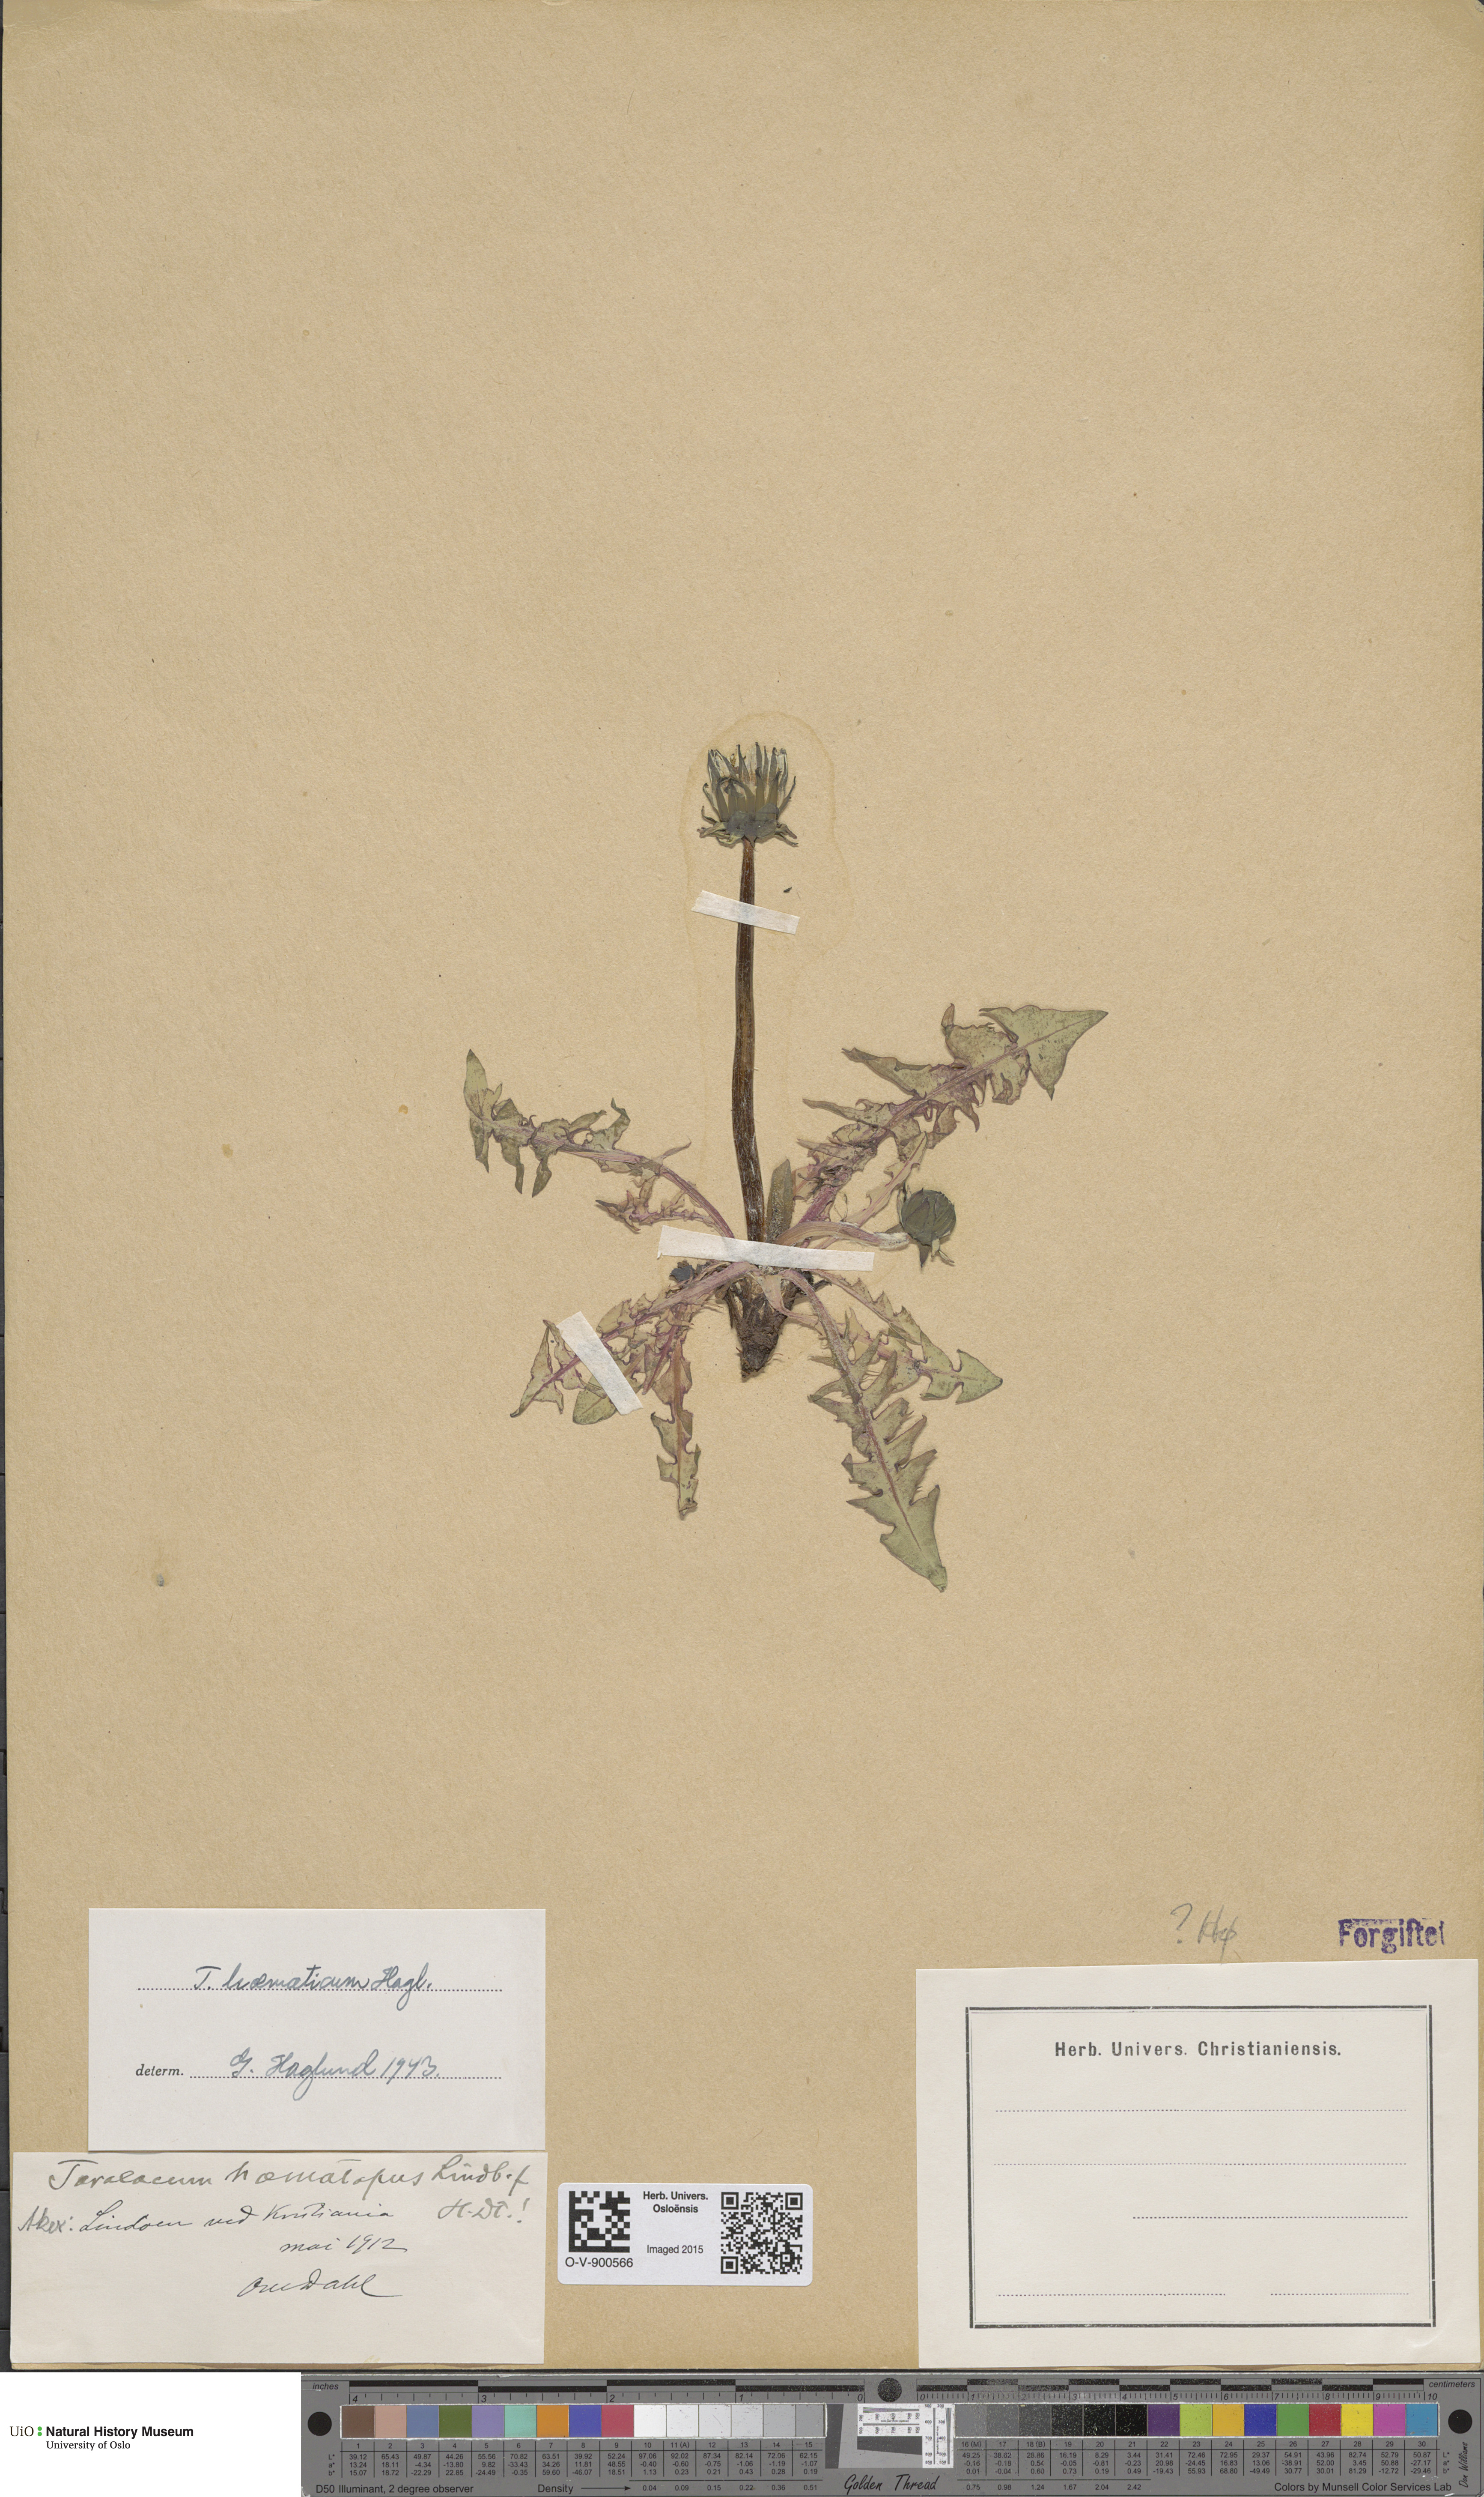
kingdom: Plantae
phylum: Tracheophyta
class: Magnoliopsida
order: Asterales
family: Asteraceae
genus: Taraxacum
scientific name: Taraxacum haematicum
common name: Blood-red dandelion
